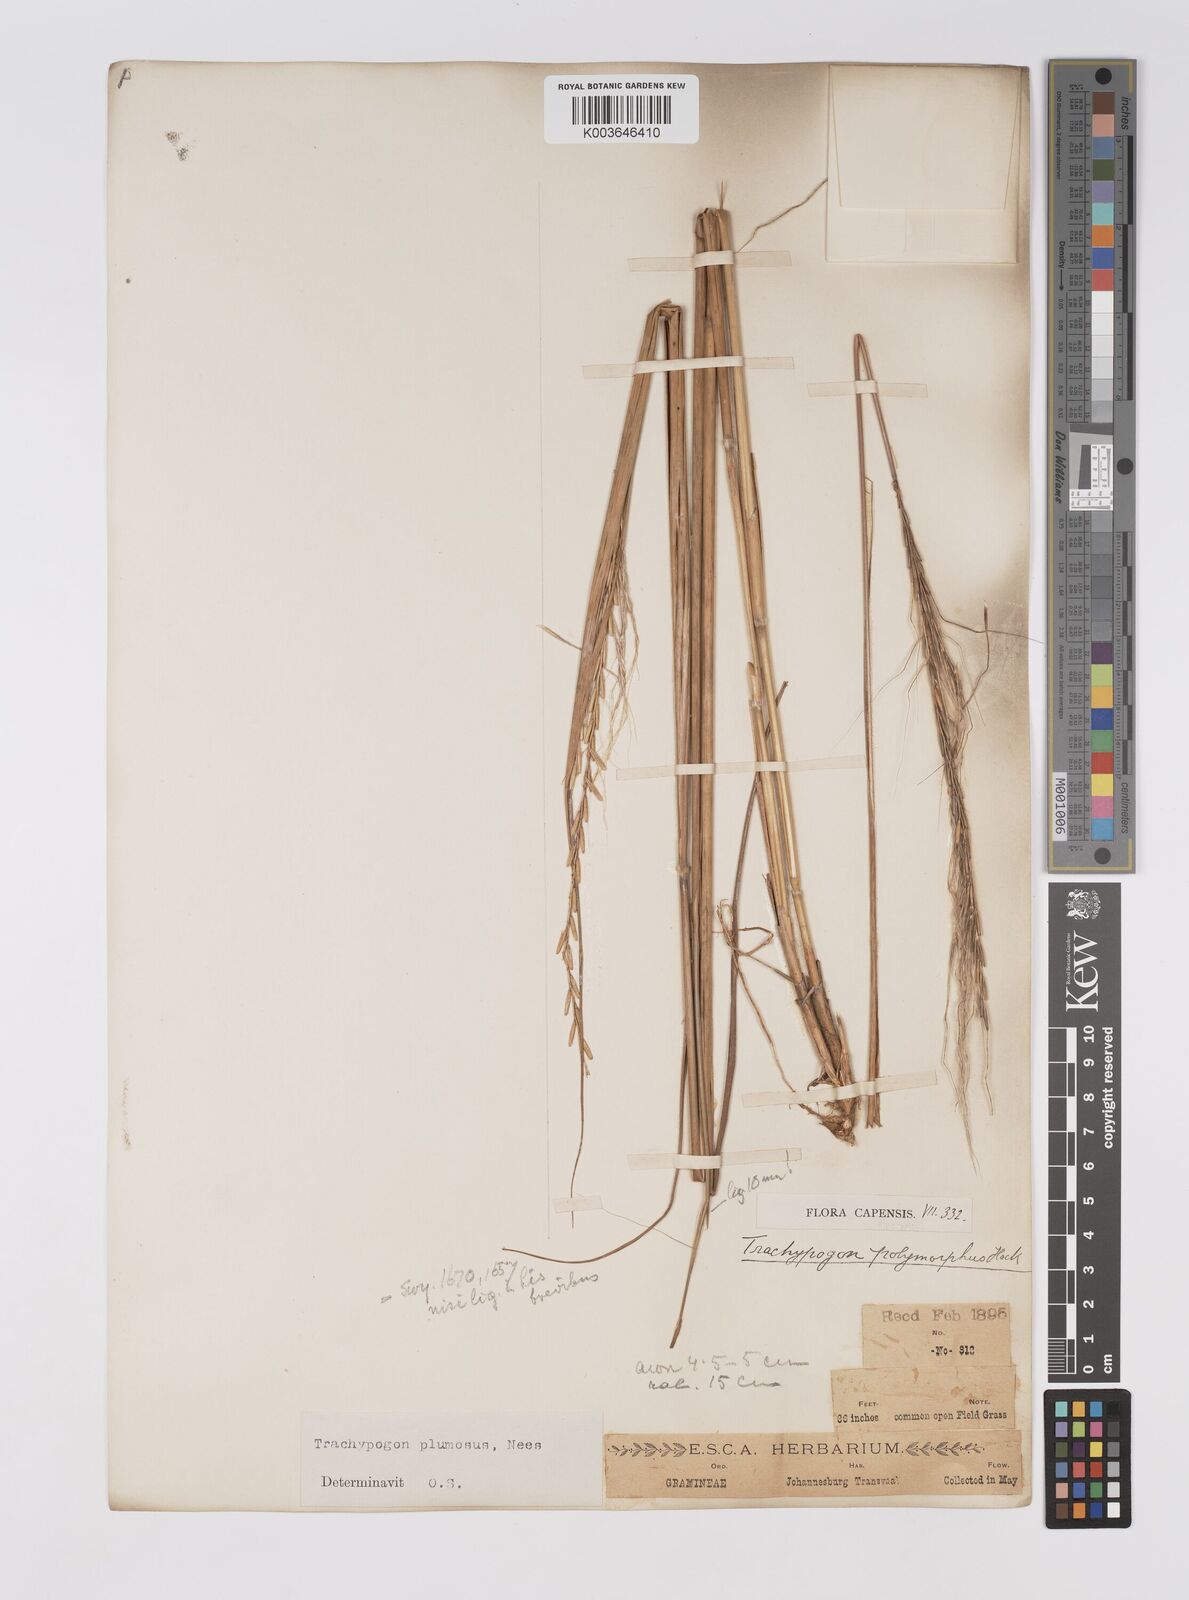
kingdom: Plantae
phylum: Tracheophyta
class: Liliopsida
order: Poales
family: Poaceae
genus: Trachypogon
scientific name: Trachypogon spicatus
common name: Crinkle-awn
